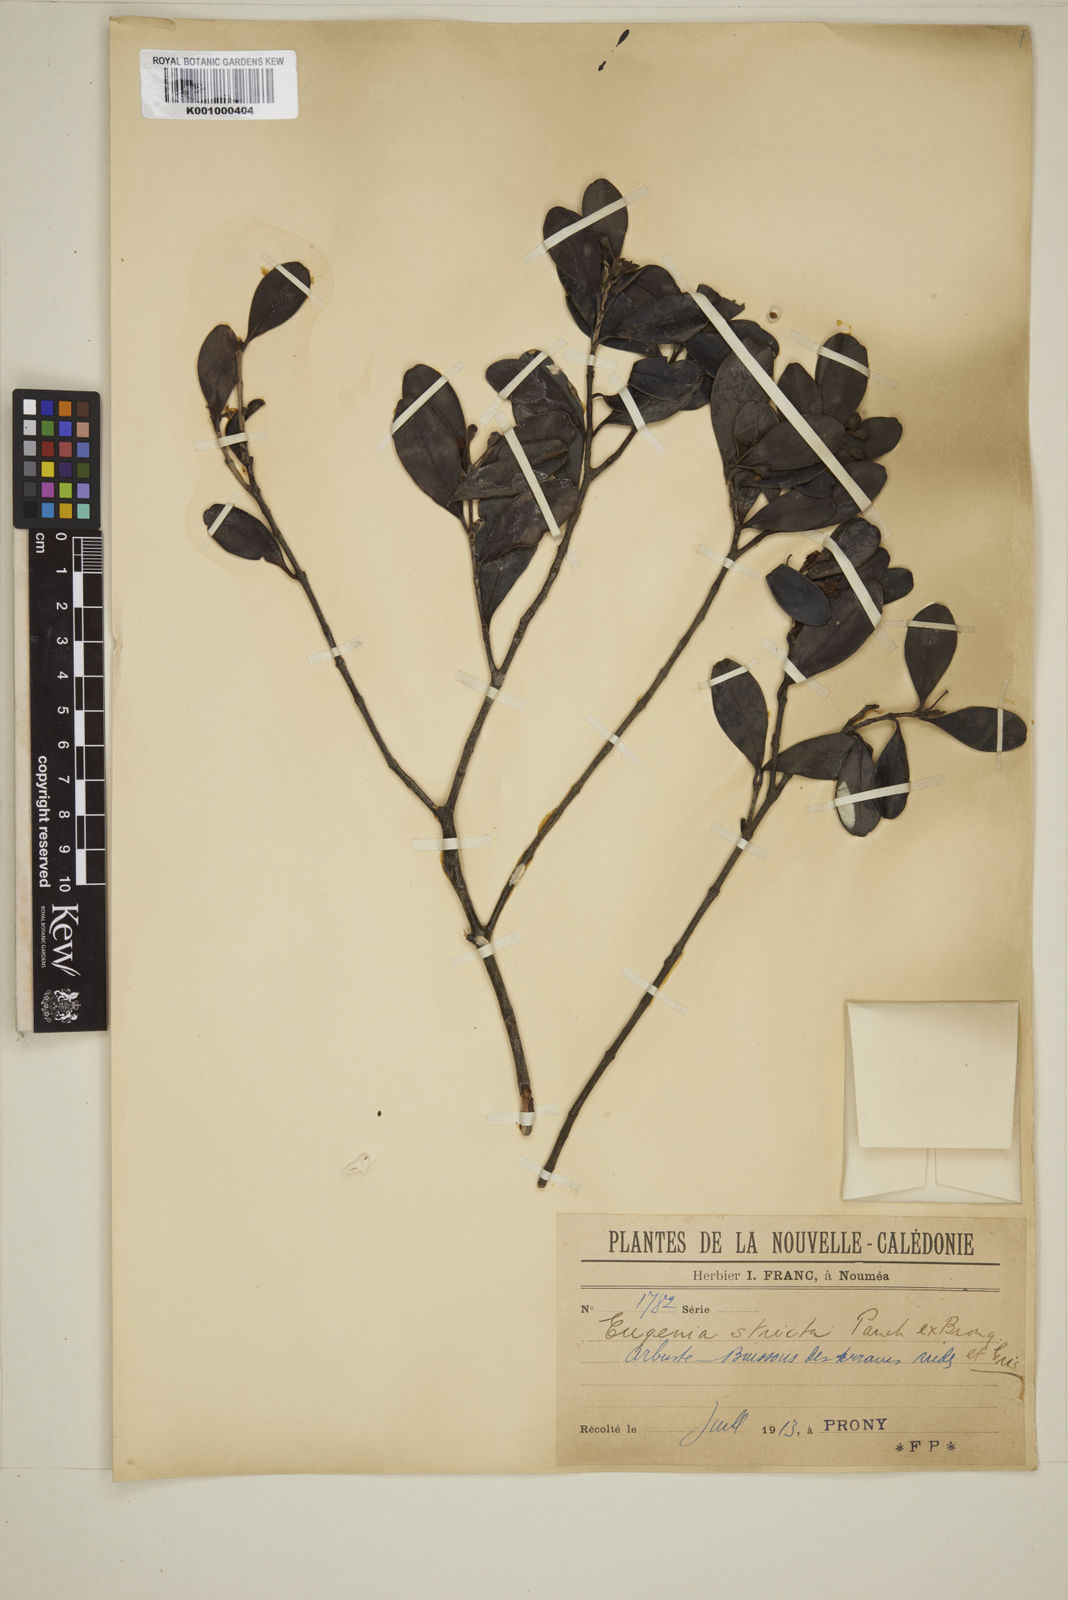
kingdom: Plantae
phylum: Tracheophyta
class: Magnoliopsida
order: Myrtales
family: Myrtaceae
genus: Austromyrtus
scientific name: Austromyrtus stricta
